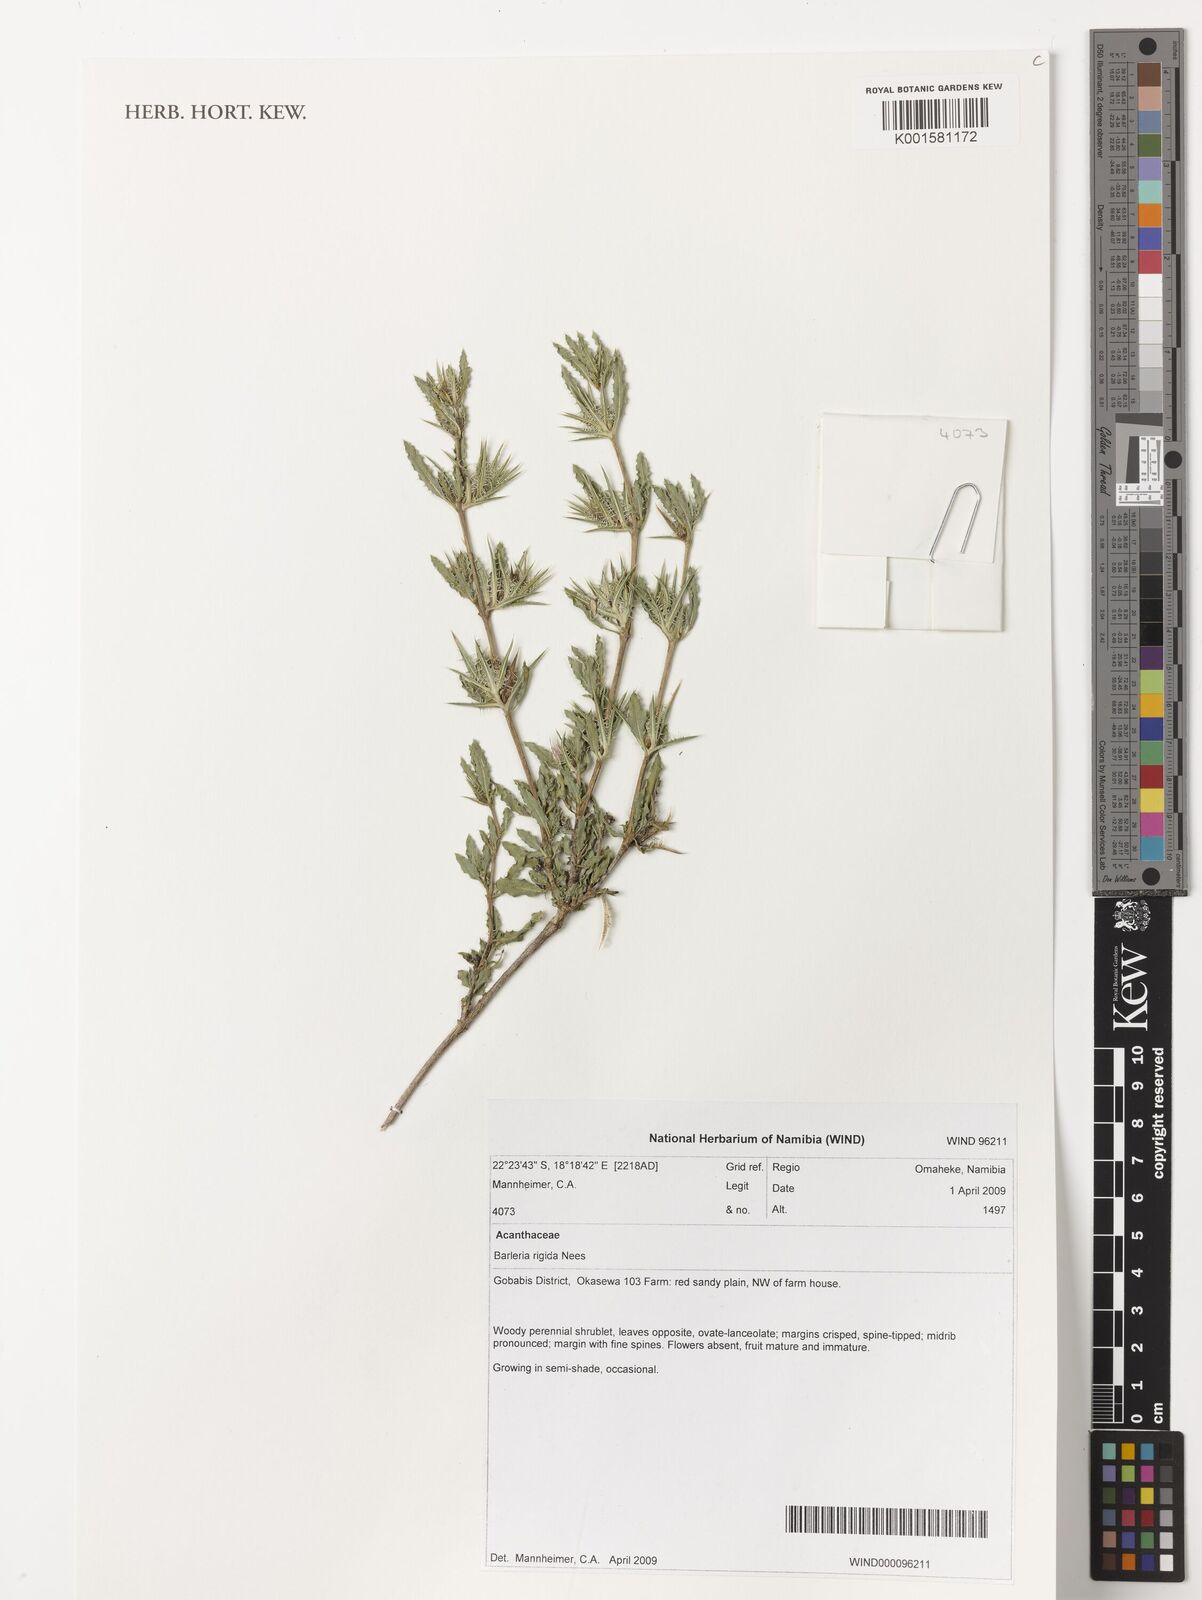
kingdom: Plantae
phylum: Tracheophyta
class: Magnoliopsida
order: Lamiales
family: Acanthaceae
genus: Barleria
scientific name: Barleria rigida
